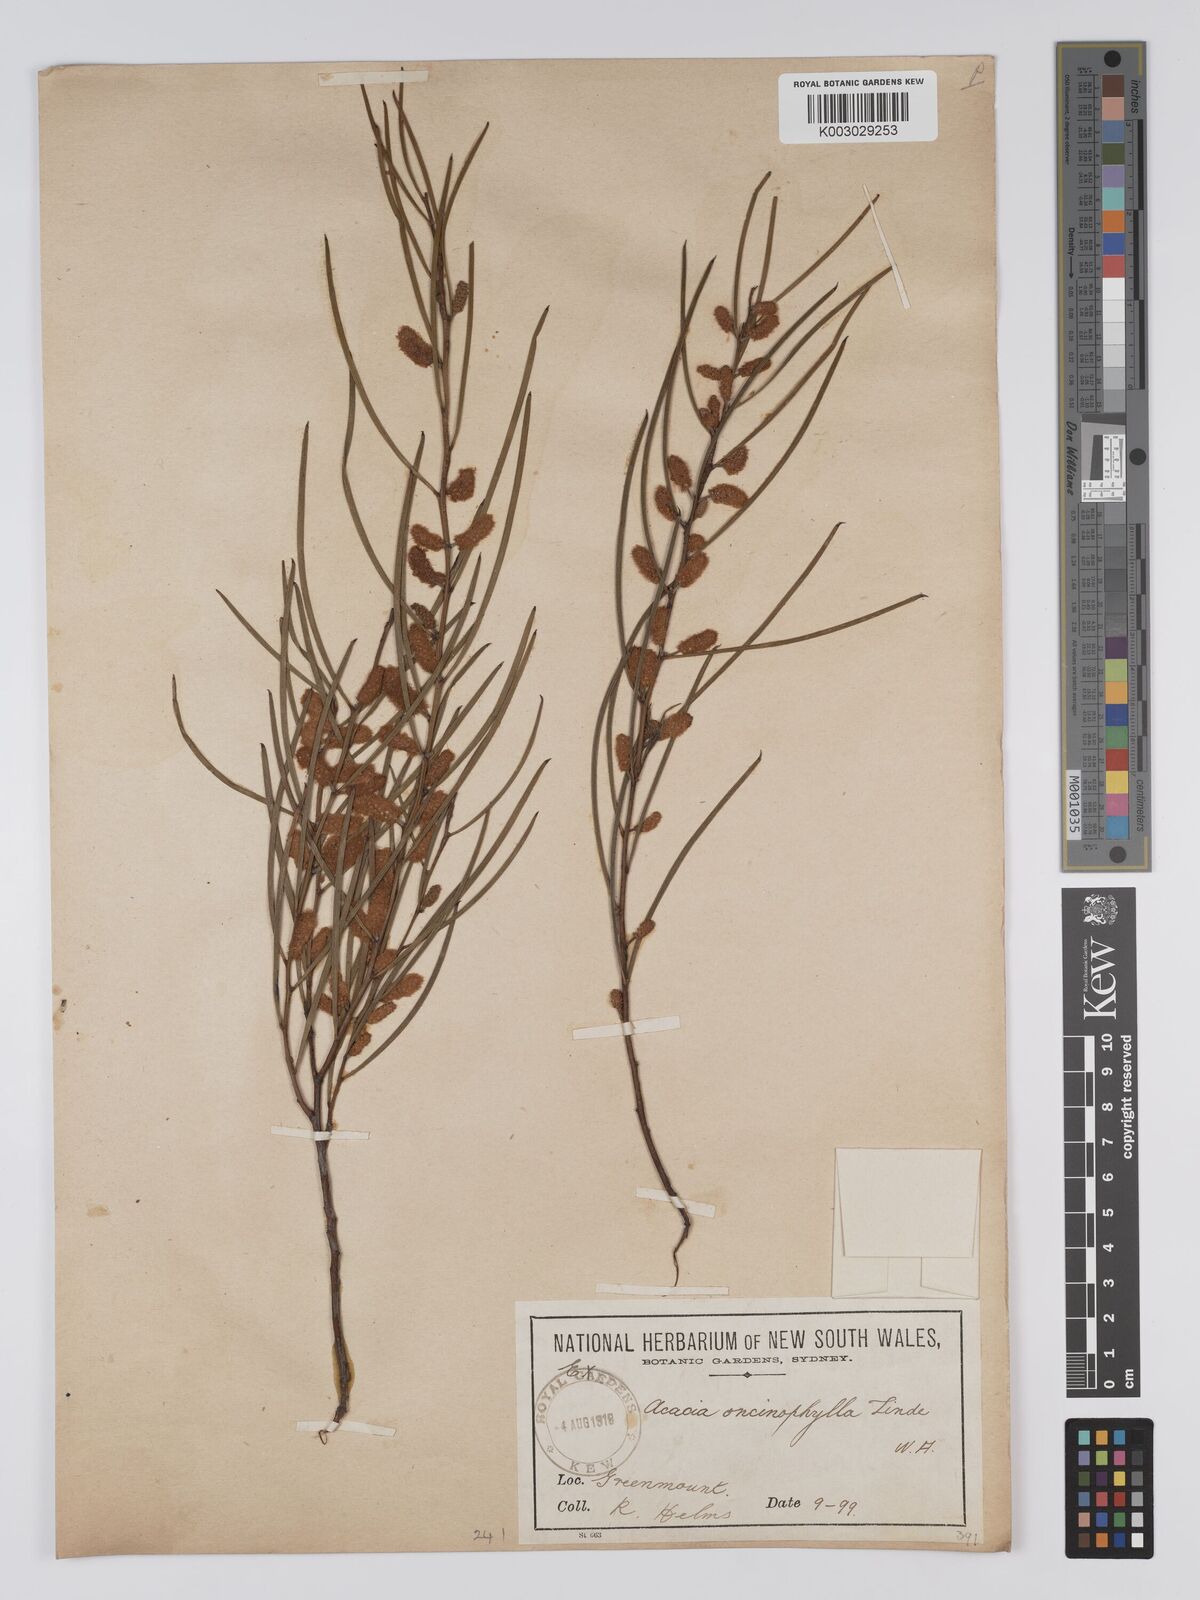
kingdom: Plantae
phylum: Tracheophyta
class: Magnoliopsida
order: Fabales
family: Fabaceae
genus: Acacia
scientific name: Acacia oncinophylla
